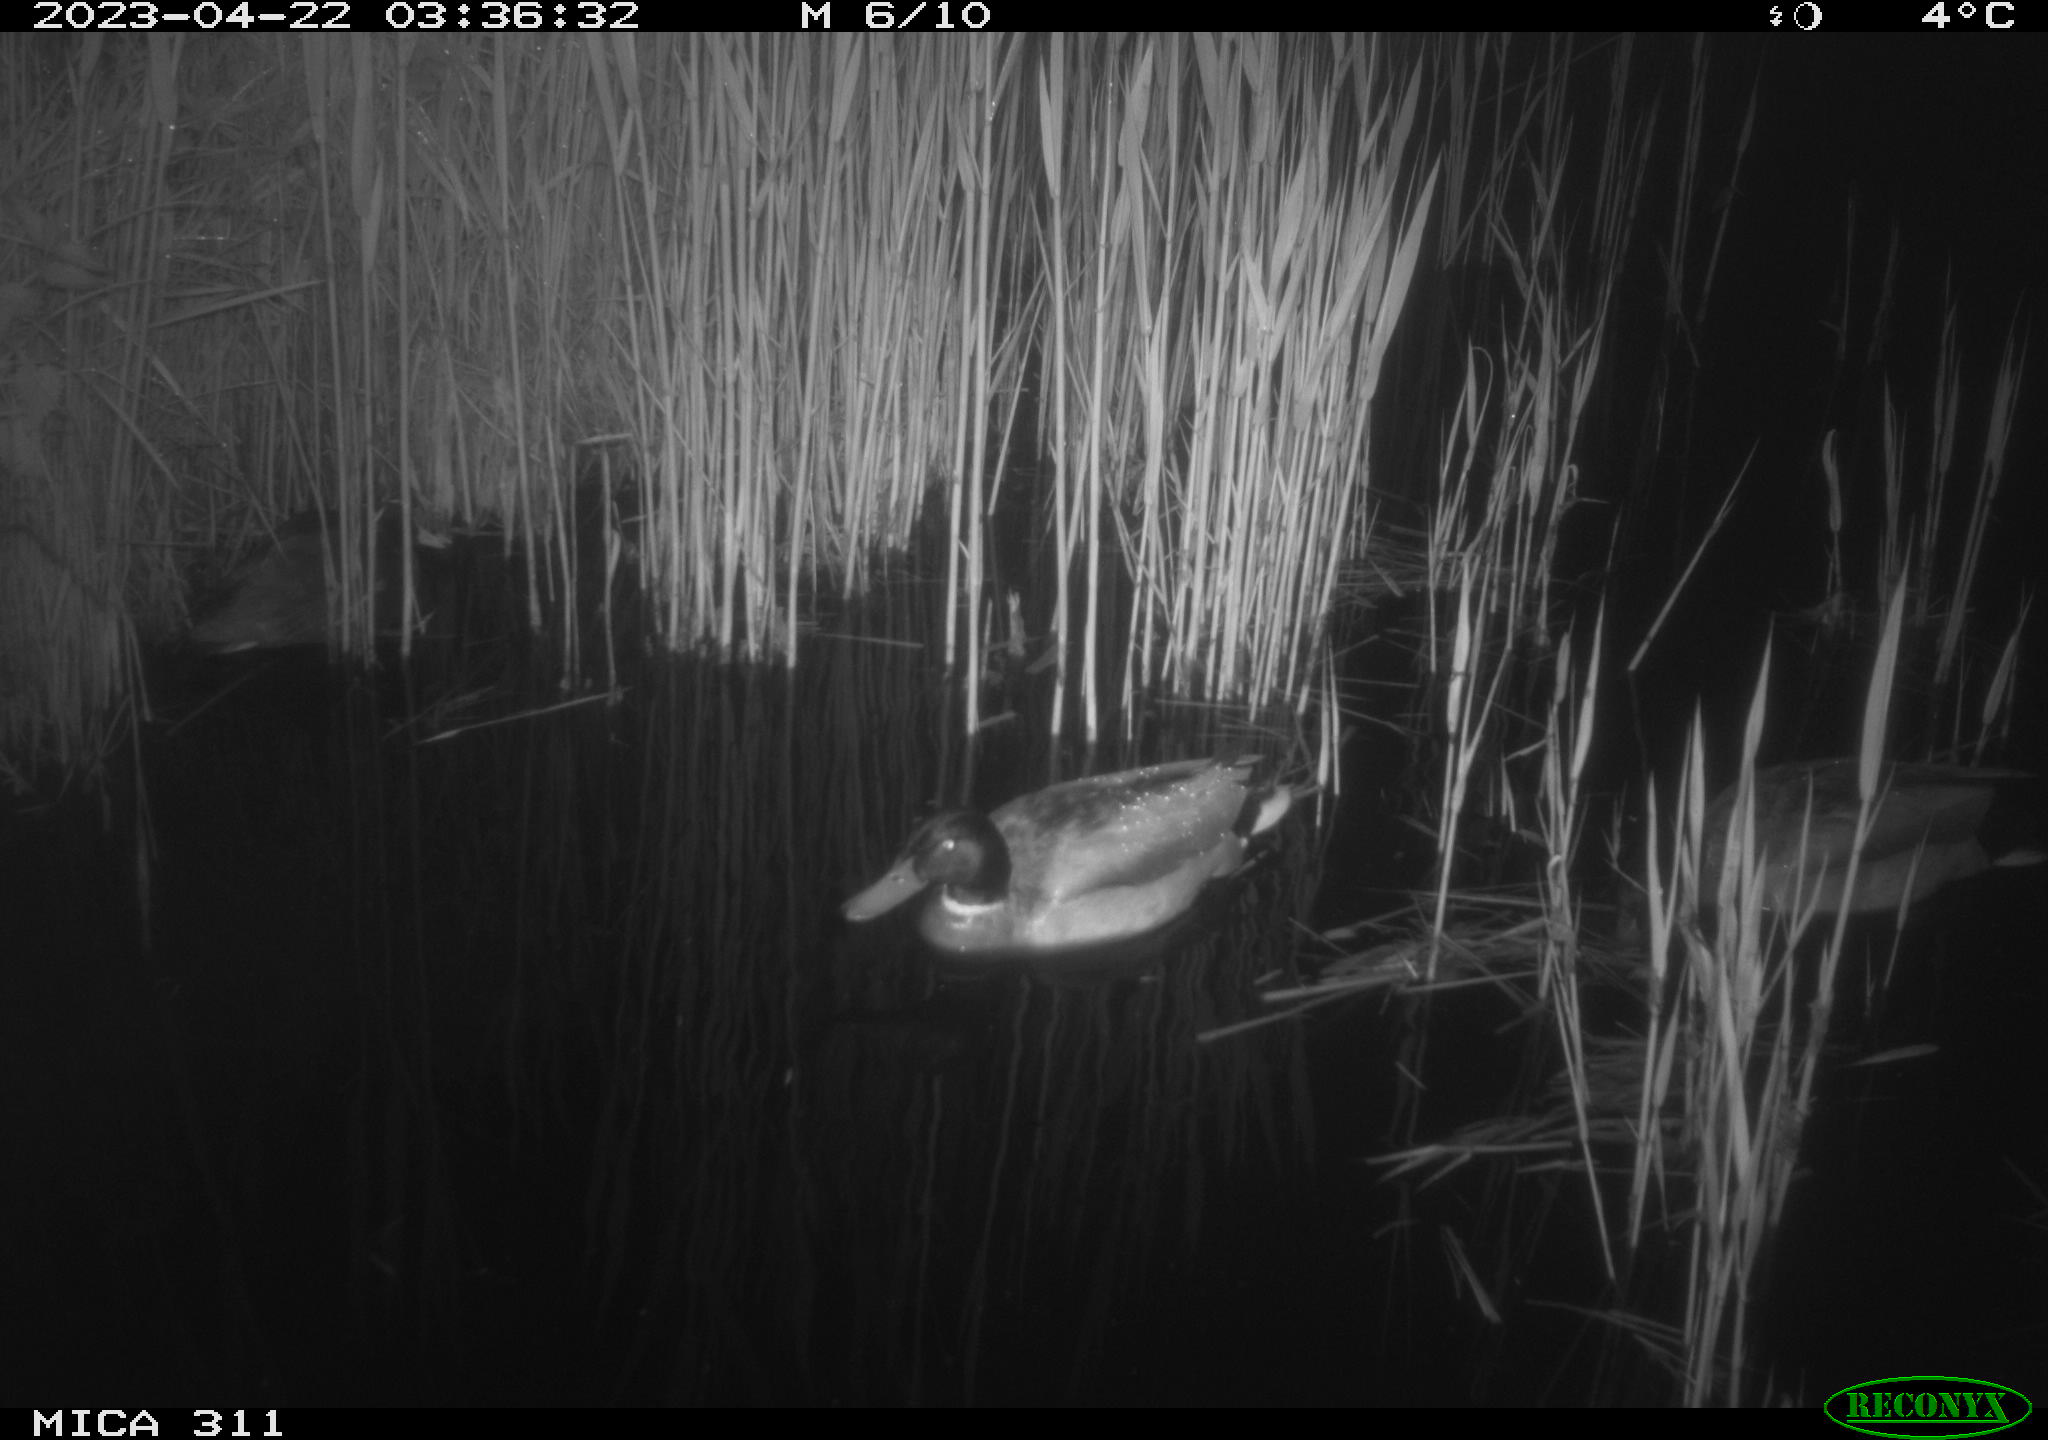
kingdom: Animalia
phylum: Chordata
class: Aves
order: Anseriformes
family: Anatidae
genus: Anas
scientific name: Anas
